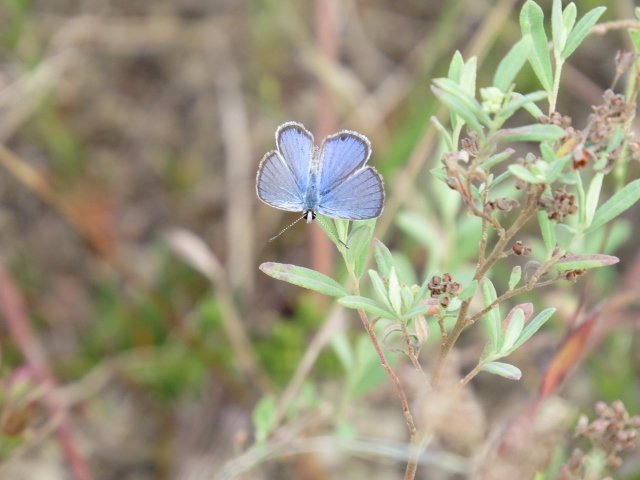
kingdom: Animalia
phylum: Arthropoda
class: Insecta
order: Lepidoptera
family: Lycaenidae
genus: Hemiargus
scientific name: Hemiargus ceraunus
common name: Ceraunus Blue
